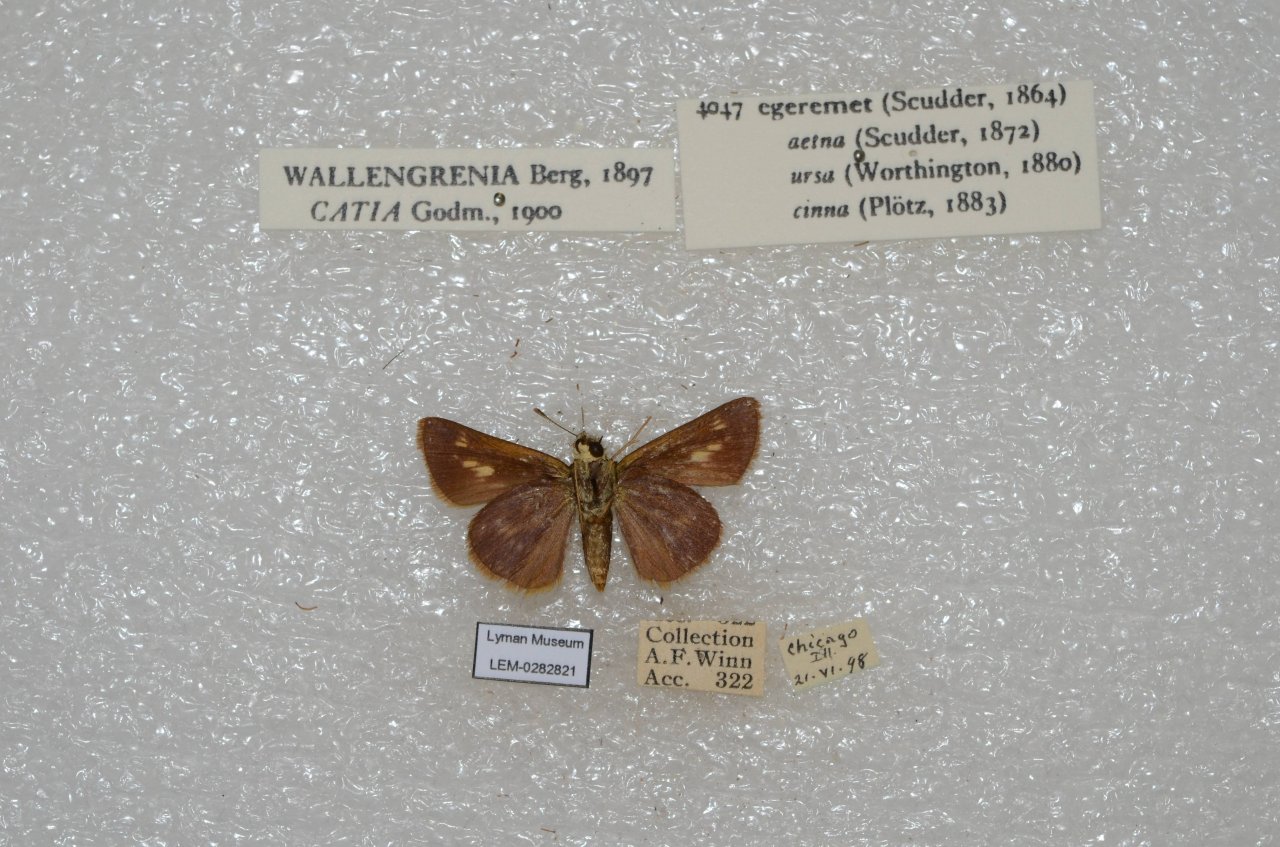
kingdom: Animalia
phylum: Arthropoda
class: Insecta
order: Lepidoptera
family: Hesperiidae
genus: Polites
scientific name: Polites egeremet
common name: Northern Broken-Dash
